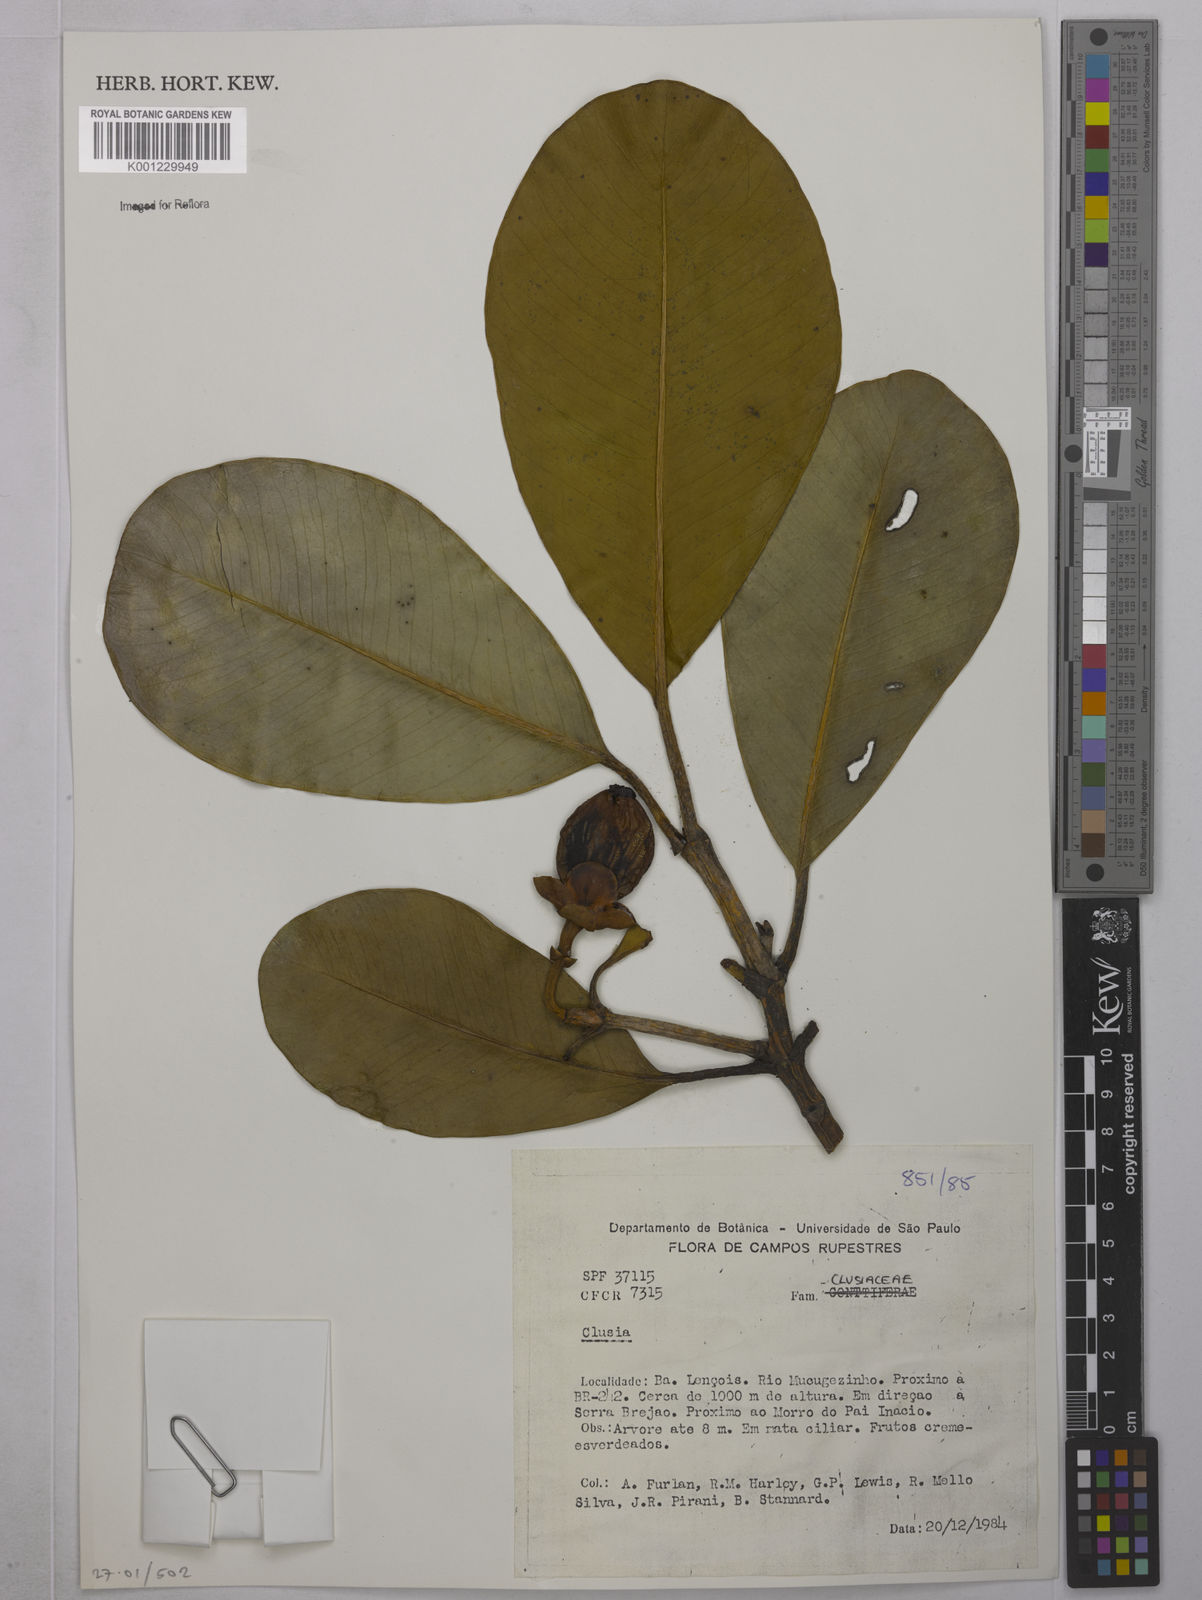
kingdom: Plantae
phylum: Tracheophyta
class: Magnoliopsida
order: Malpighiales
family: Clusiaceae
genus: Clusia
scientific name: Clusia
